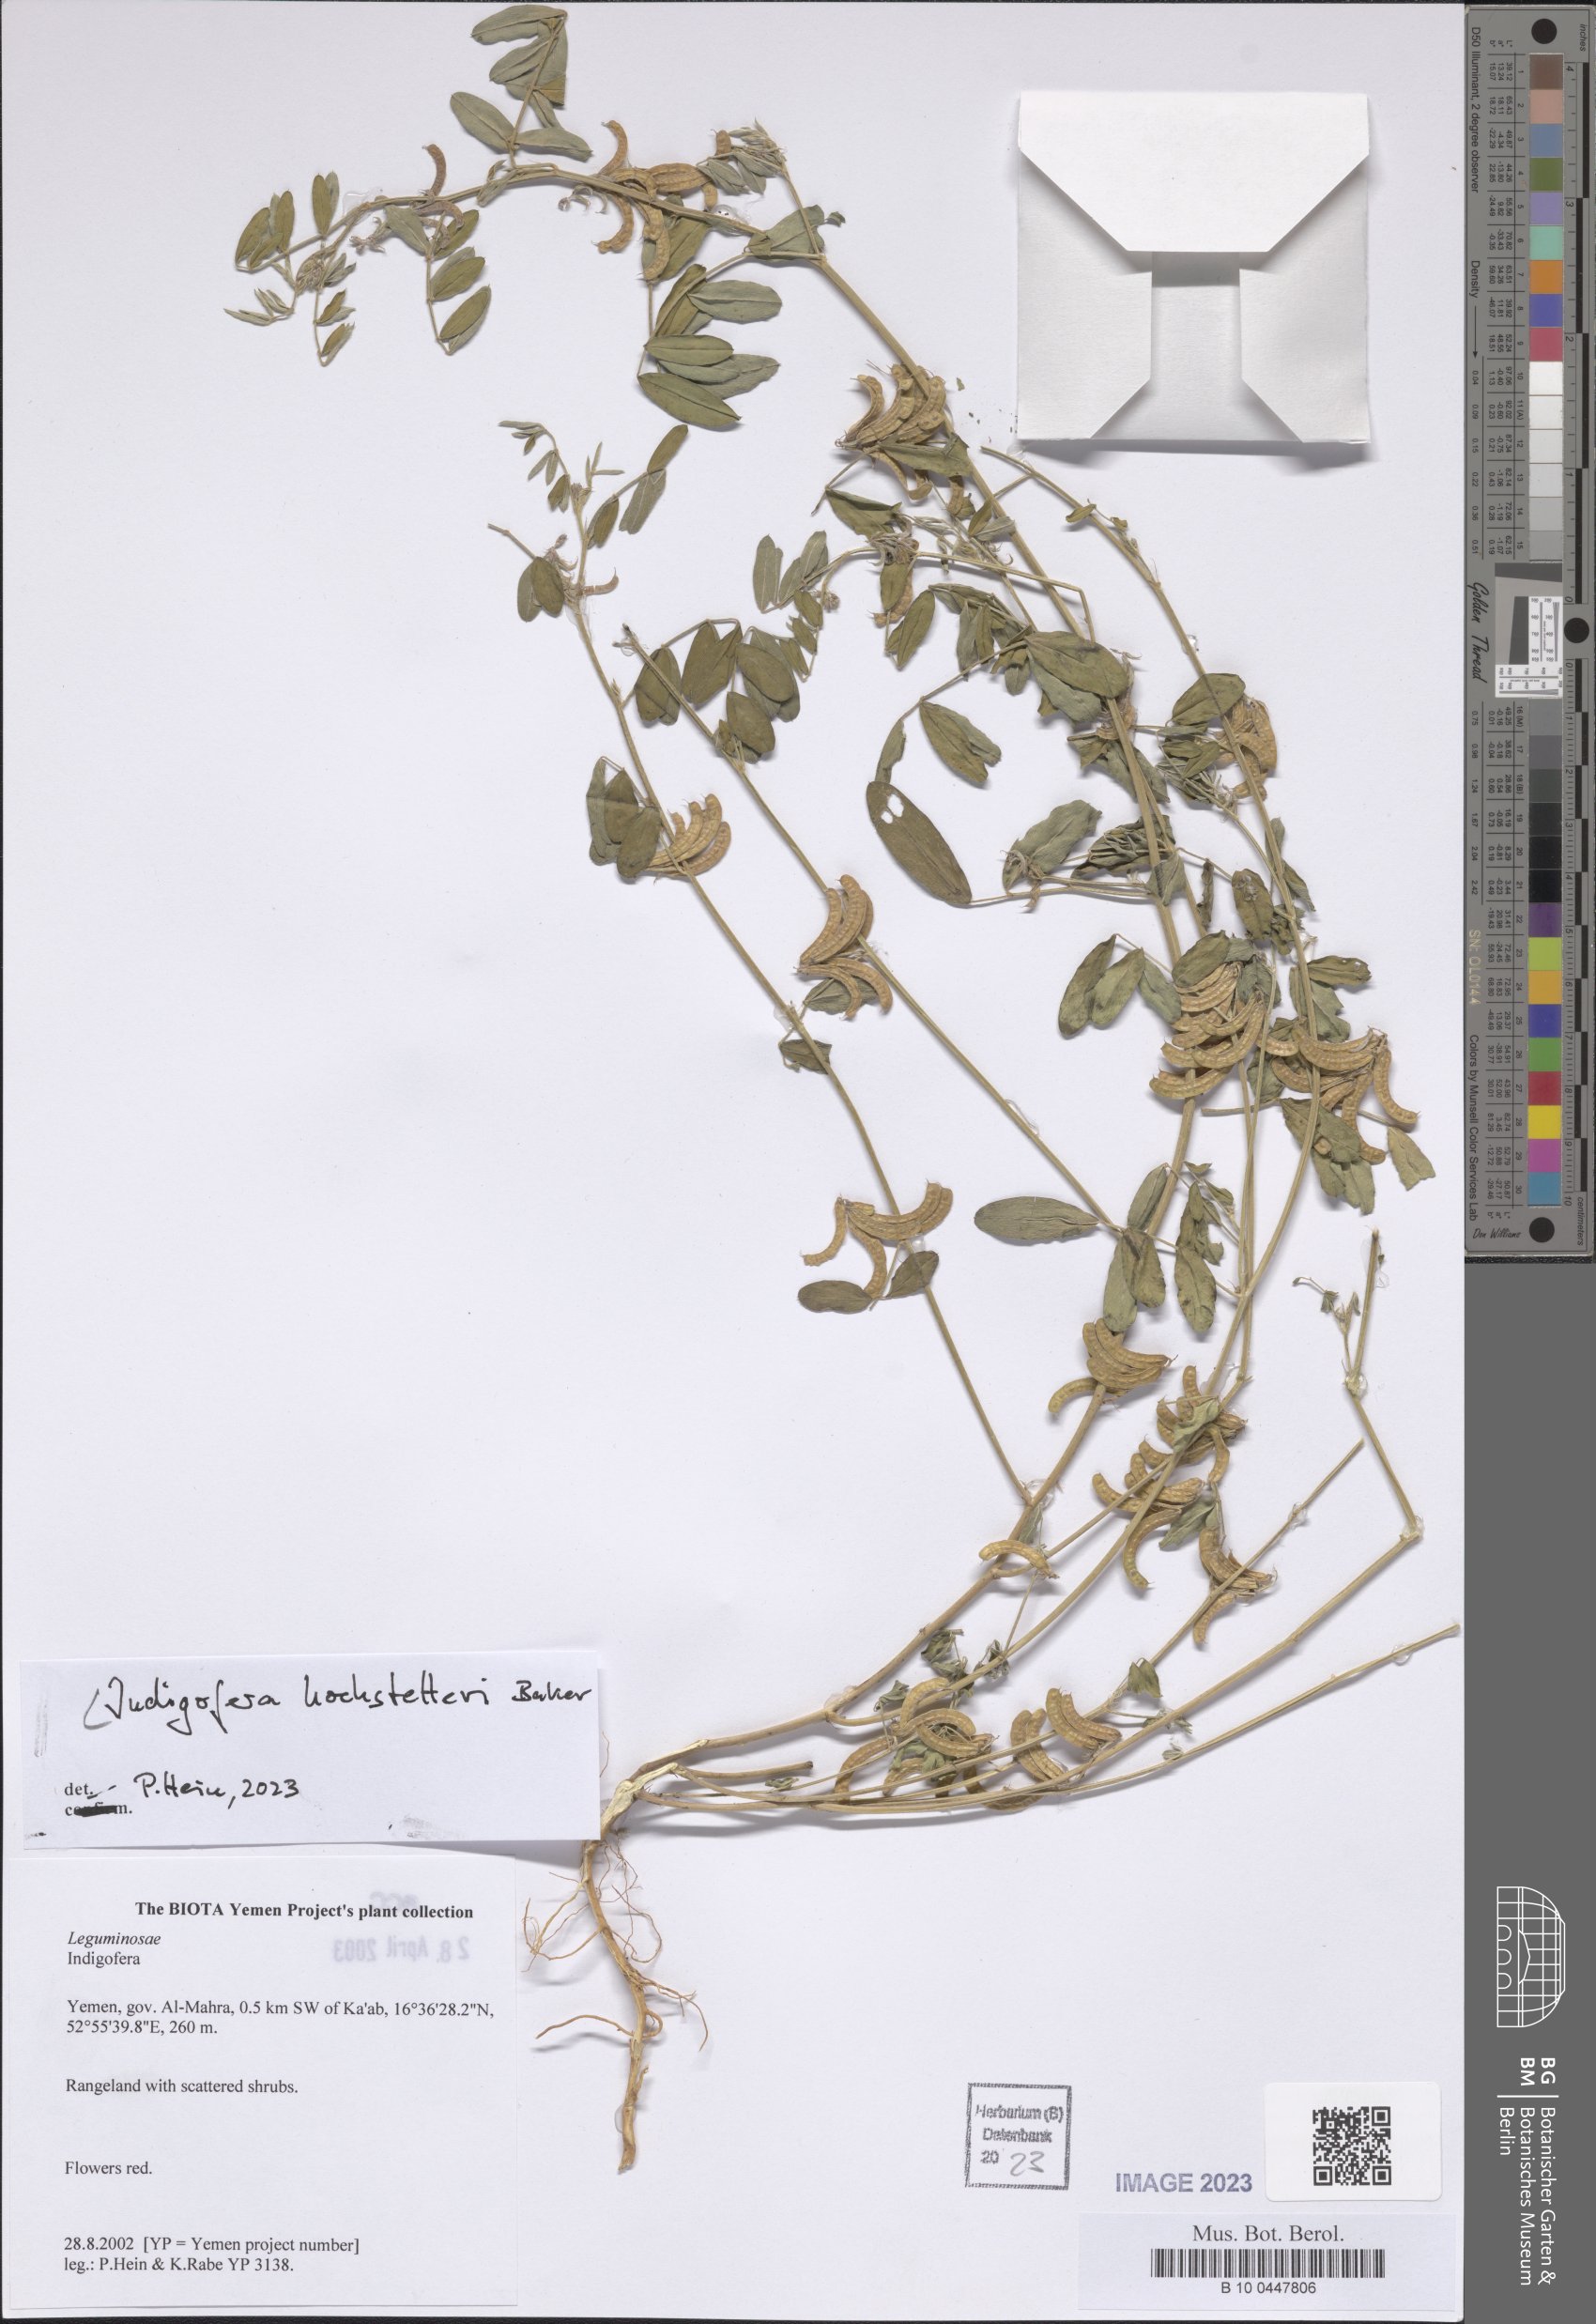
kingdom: Plantae
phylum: Tracheophyta
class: Magnoliopsida
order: Fabales
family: Fabaceae
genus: Indigofera
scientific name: Indigofera hochstetteri
